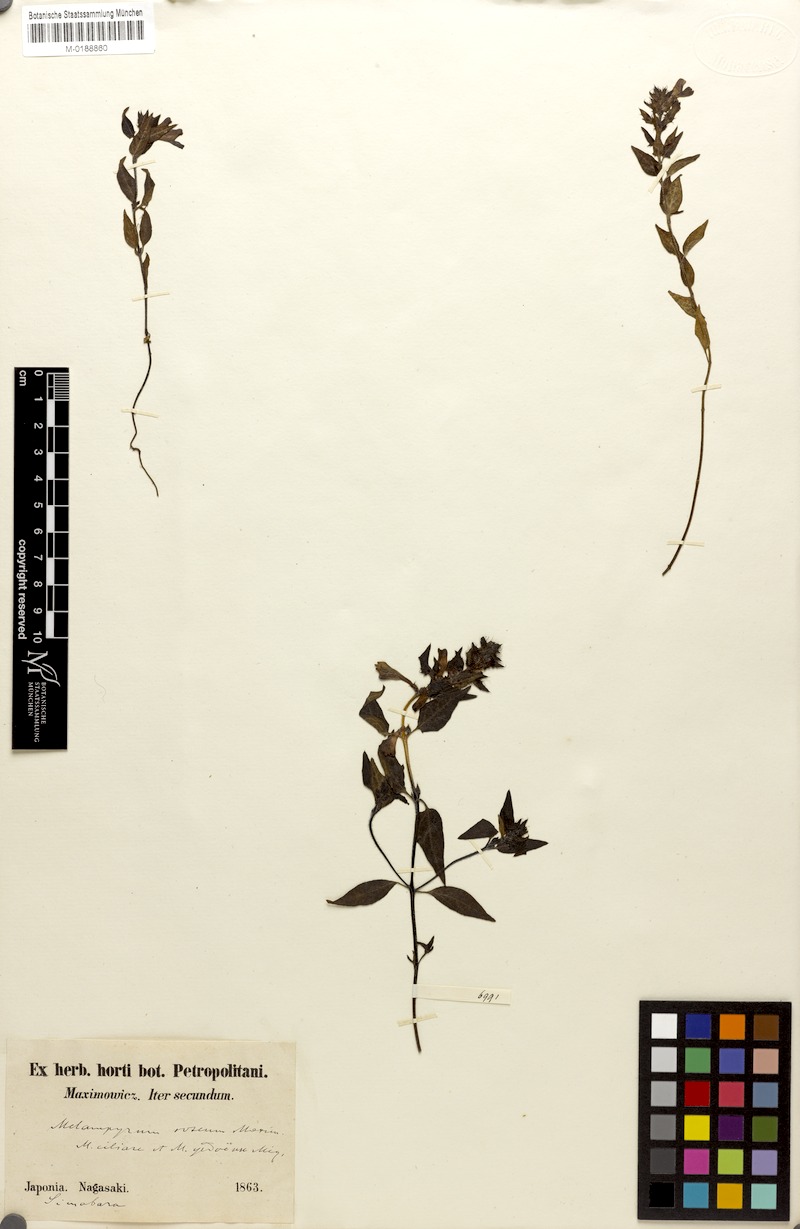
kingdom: Plantae
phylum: Tracheophyta
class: Magnoliopsida
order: Lamiales
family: Orobanchaceae
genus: Melampyrum
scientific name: Melampyrum roseum
